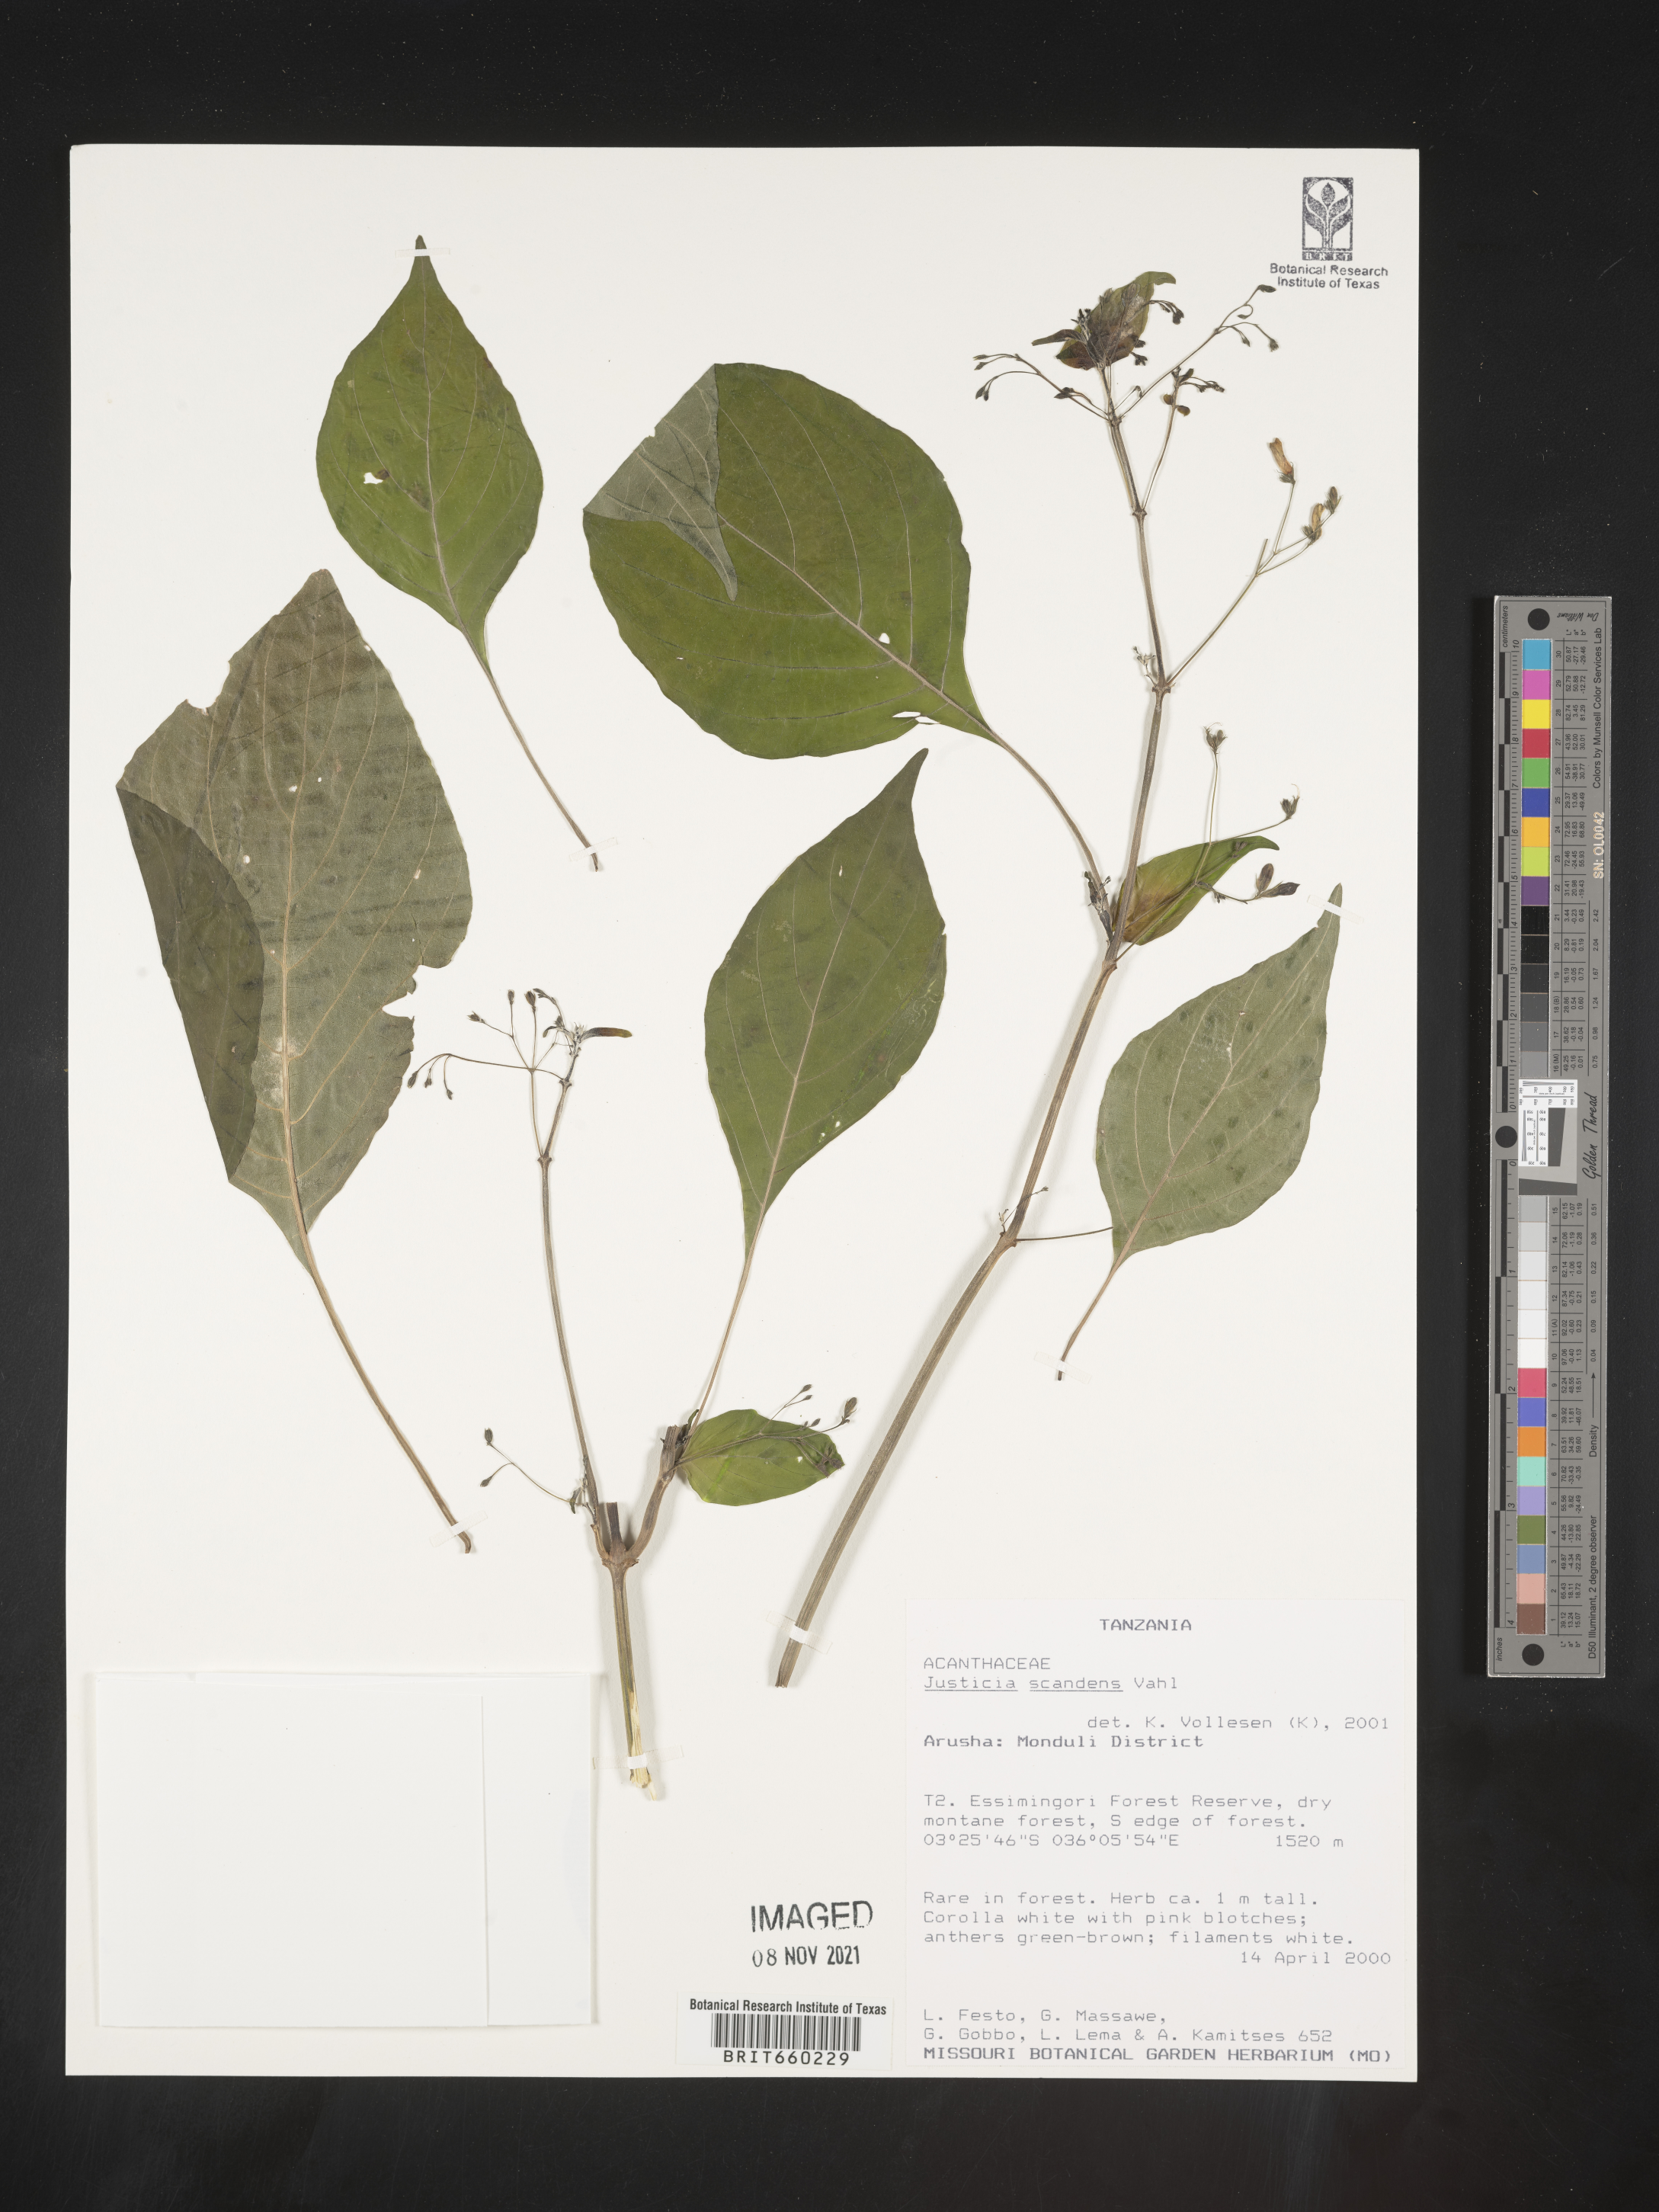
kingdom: Plantae
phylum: Tracheophyta
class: Magnoliopsida
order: Lamiales
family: Acanthaceae
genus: Justicia
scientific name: Justicia
